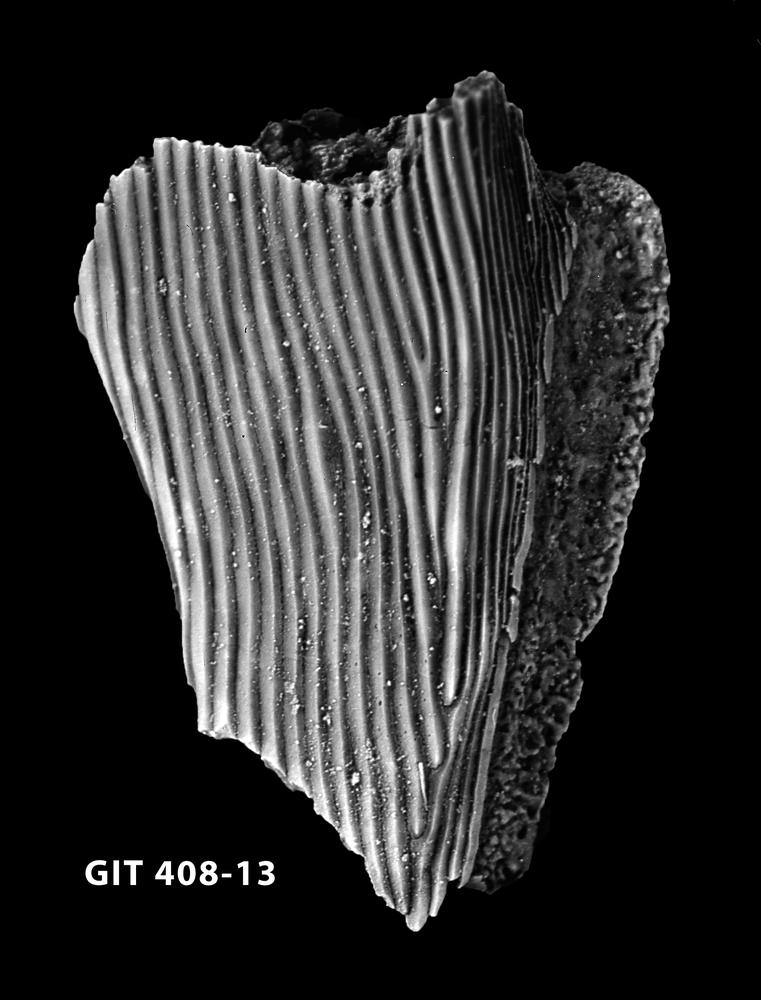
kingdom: Animalia
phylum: Chordata
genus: Archegonaspis
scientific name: Archegonaspis
